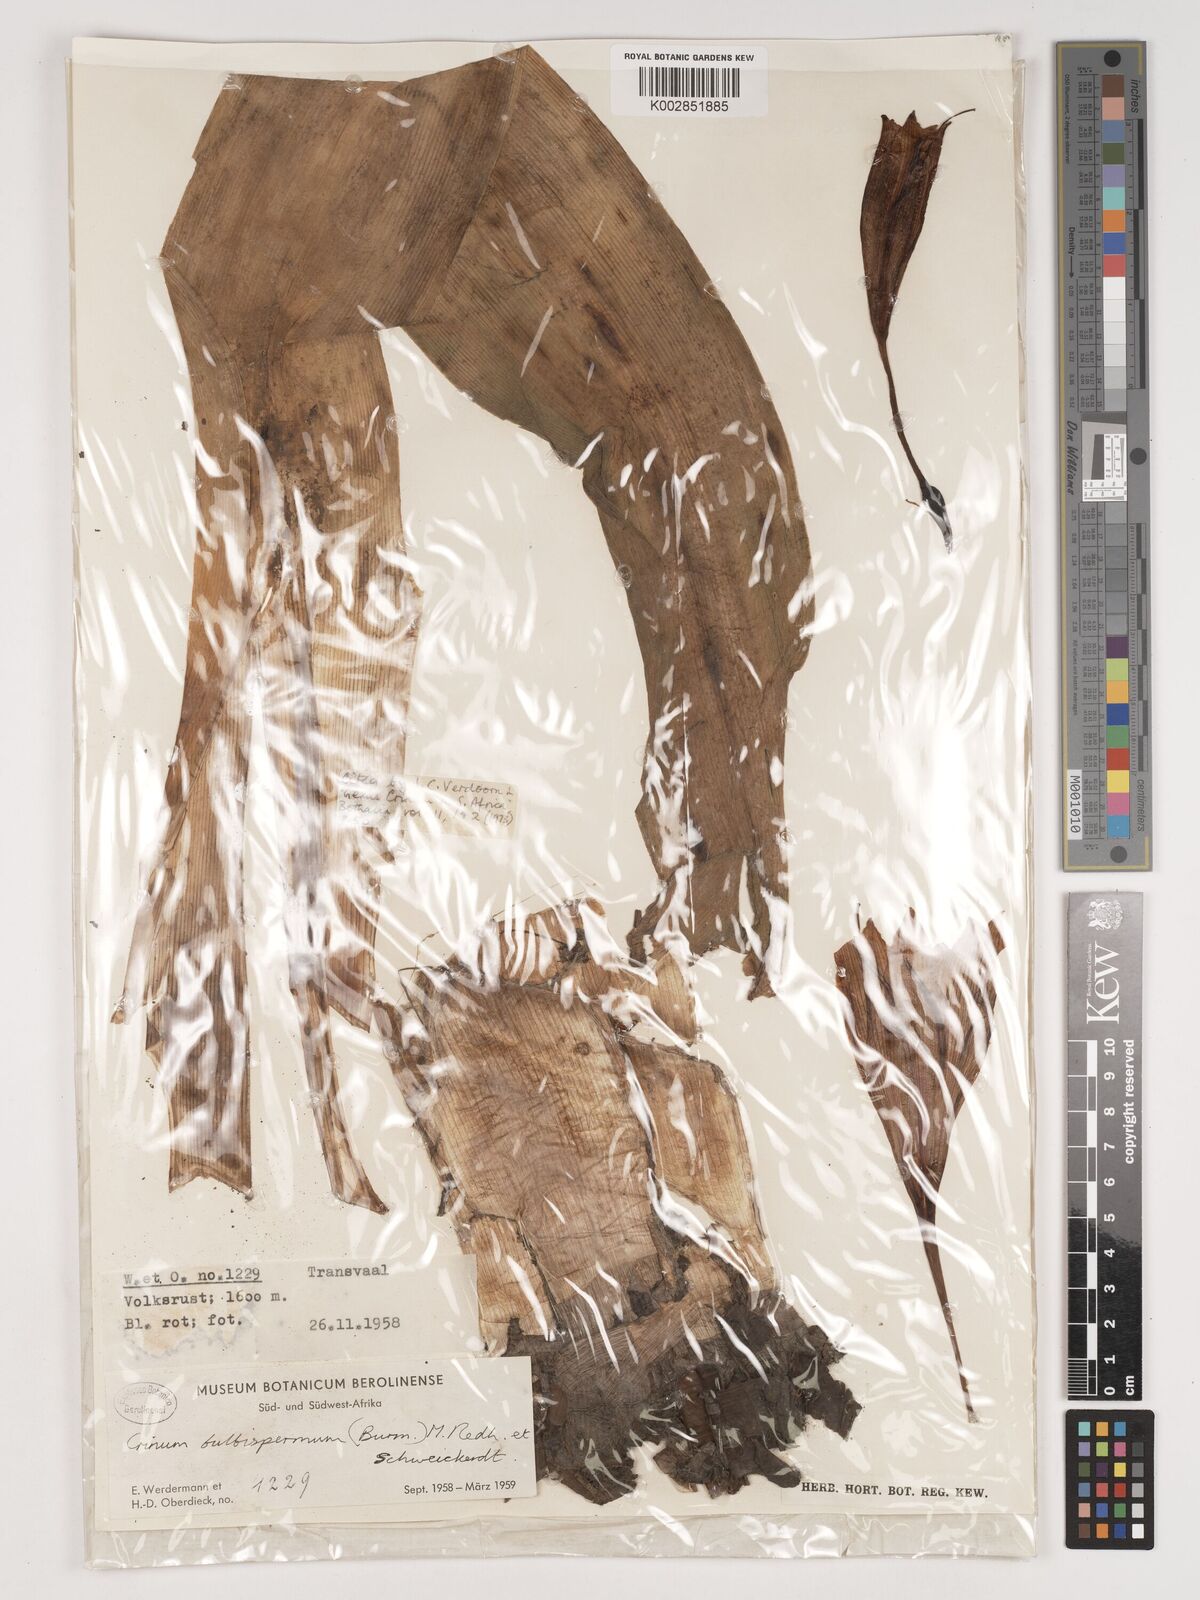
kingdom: Plantae
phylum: Tracheophyta
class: Liliopsida
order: Asparagales
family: Amaryllidaceae
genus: Crinum
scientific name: Crinum bulbispermum
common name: Hardy swamplily
